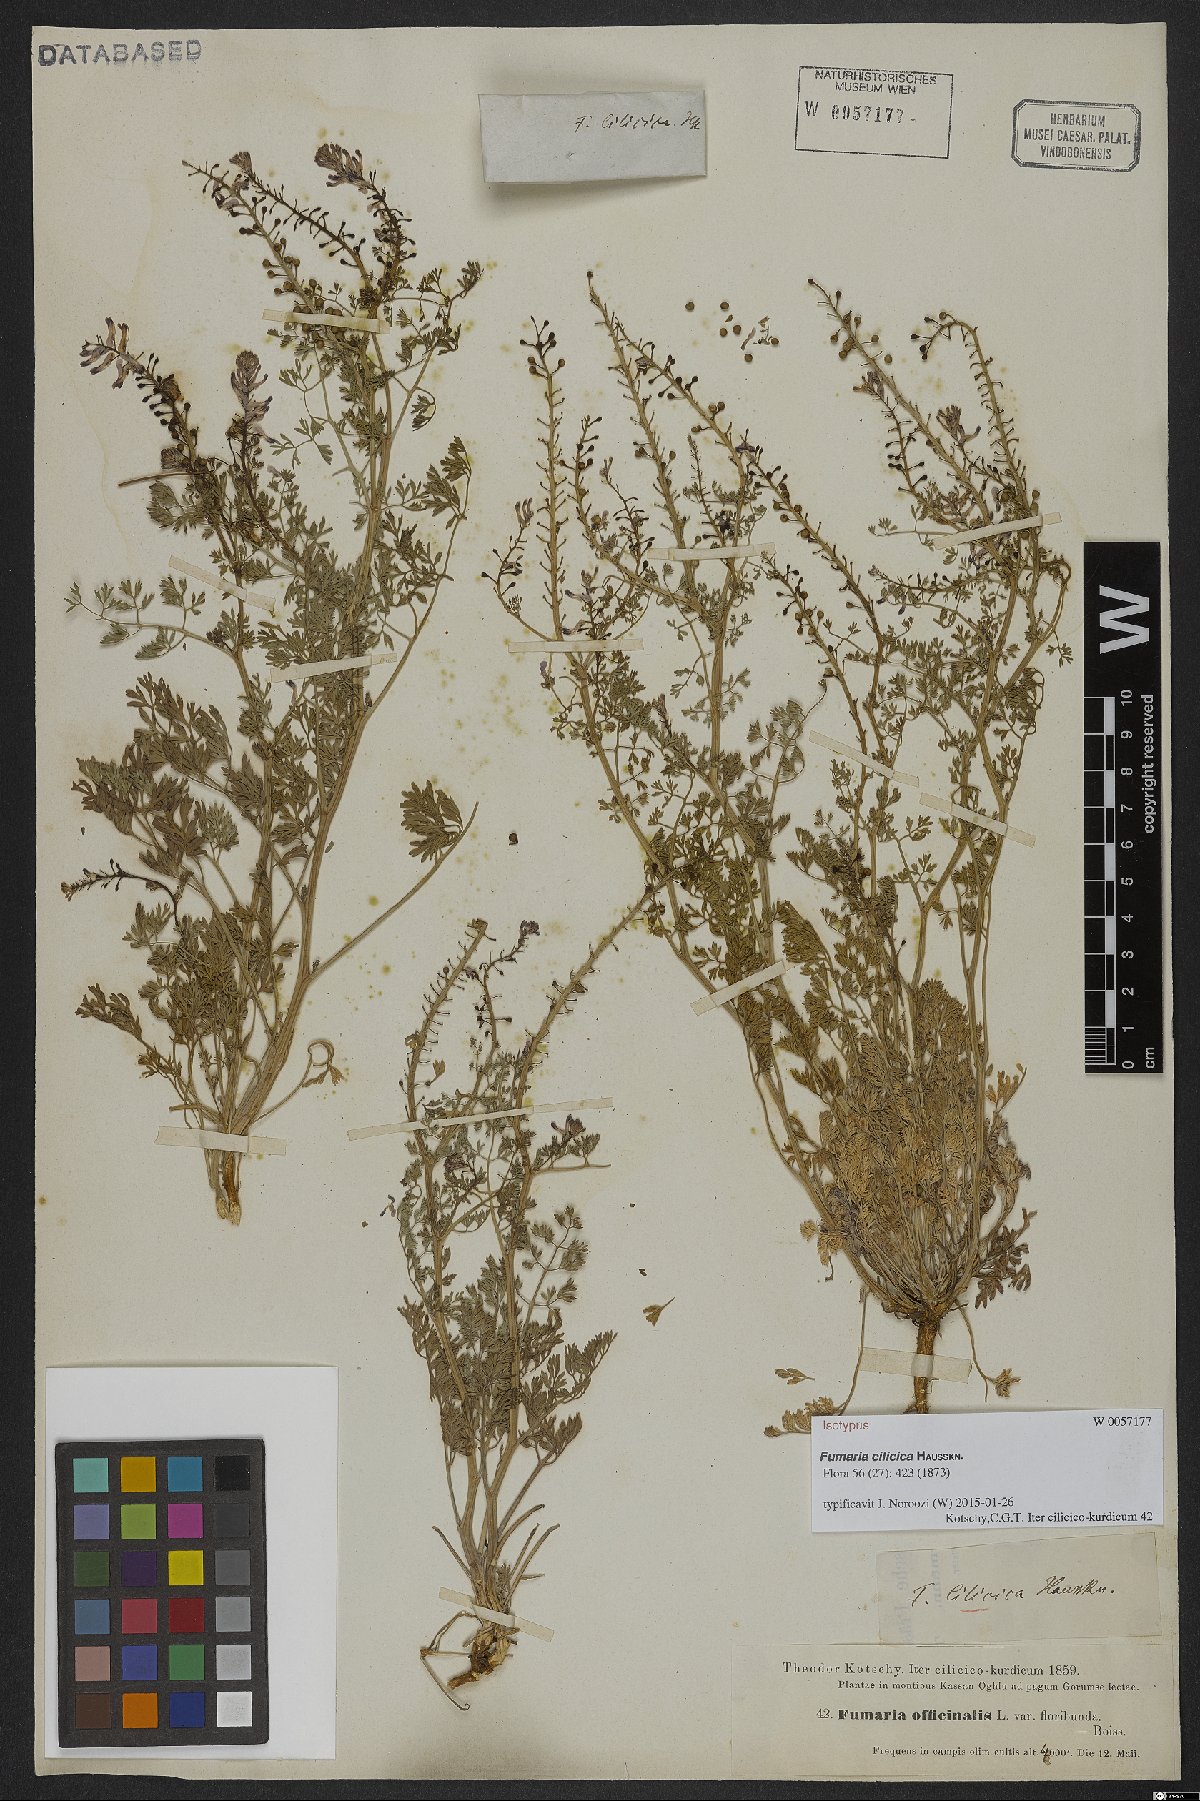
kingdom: Plantae
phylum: Tracheophyta
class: Magnoliopsida
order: Ranunculales
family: Papaveraceae
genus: Fumaria
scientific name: Fumaria cilicica
